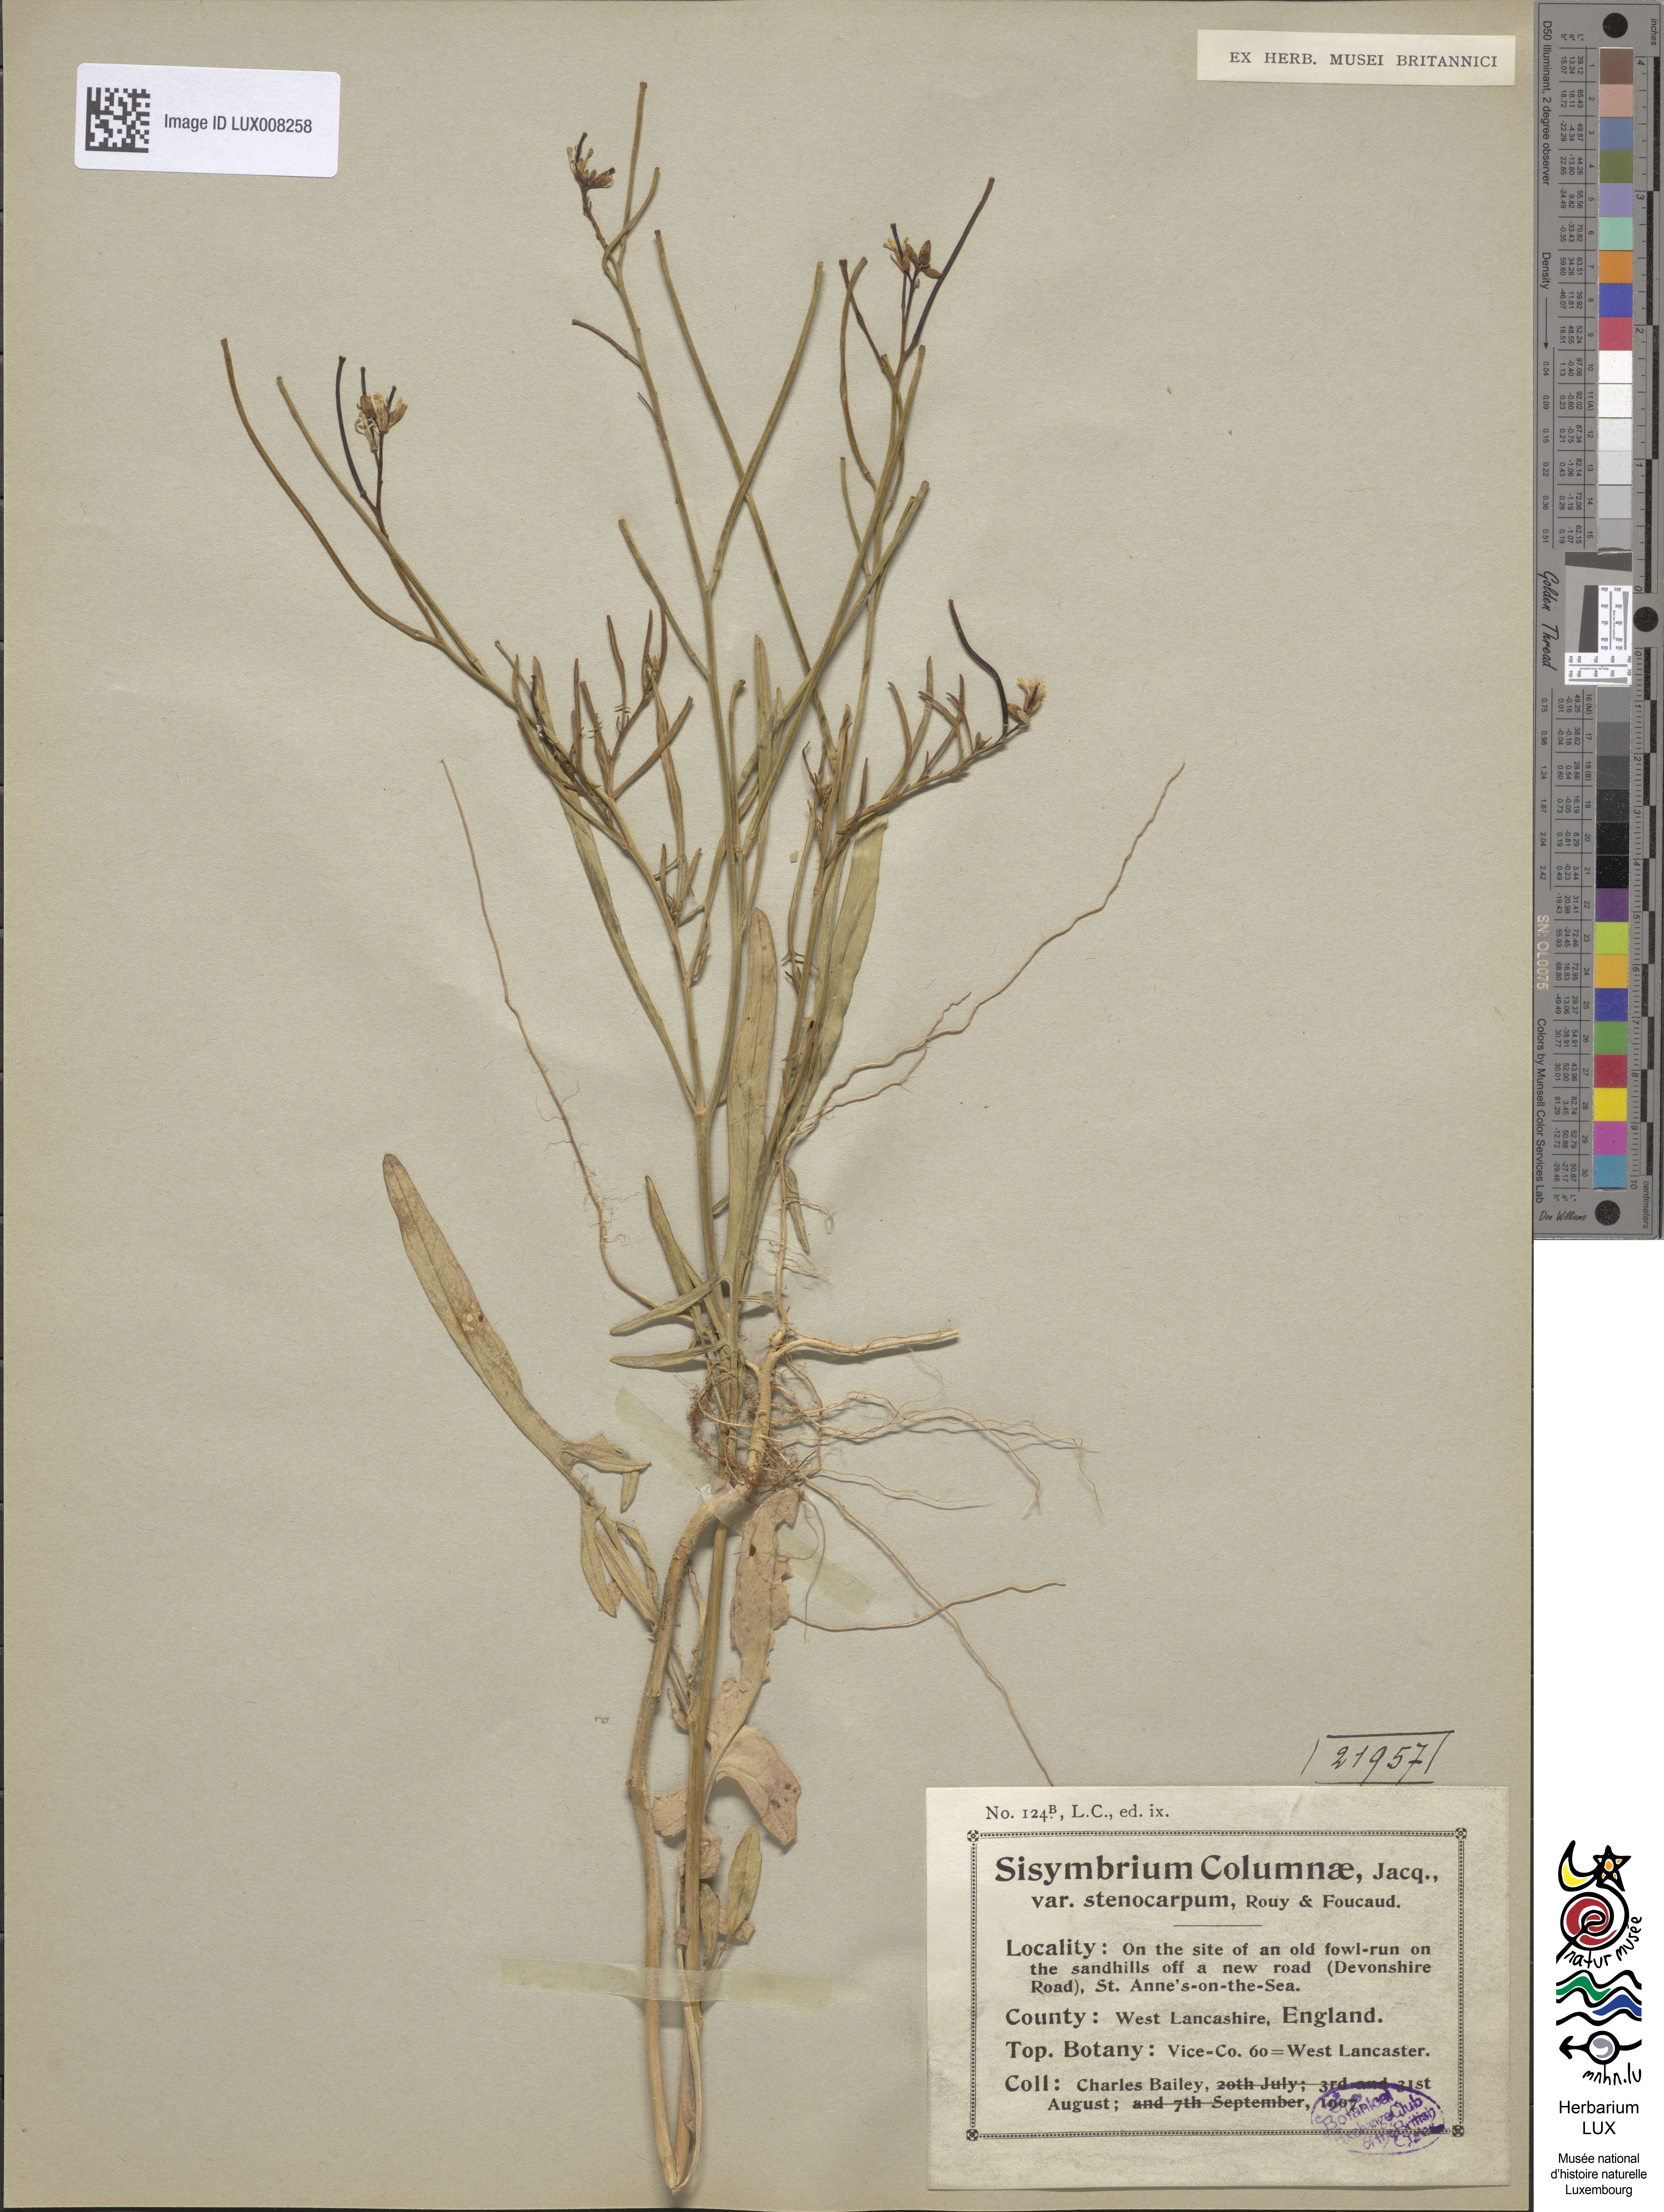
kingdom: Plantae
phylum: Tracheophyta
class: Magnoliopsida
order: Brassicales
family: Brassicaceae
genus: Sisymbrium
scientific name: Sisymbrium orientale
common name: Eastern rocket
